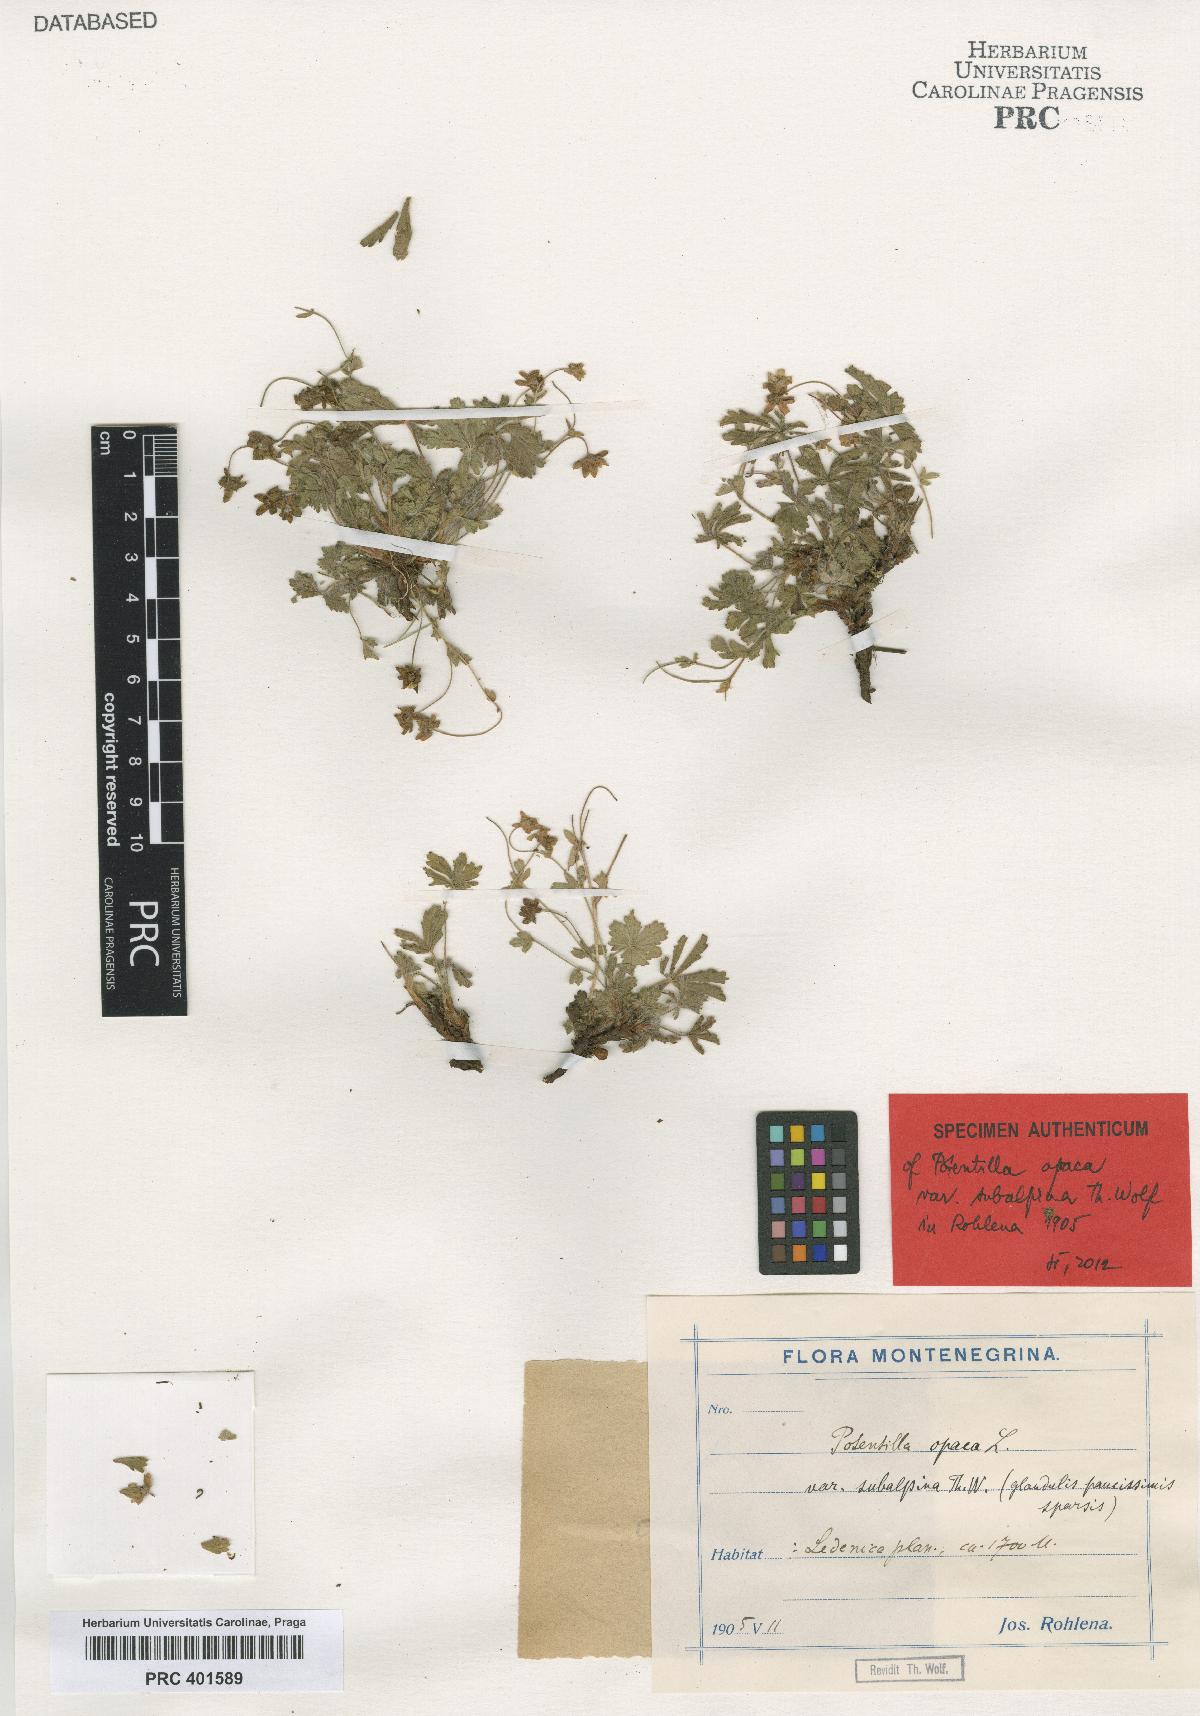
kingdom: Plantae
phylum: Tracheophyta
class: Magnoliopsida
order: Rosales
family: Rosaceae
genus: Potentilla
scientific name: Potentilla
